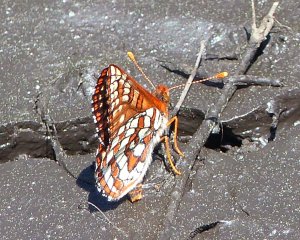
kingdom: Animalia
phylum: Arthropoda
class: Insecta
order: Lepidoptera
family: Nymphalidae
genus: Occidryas
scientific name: Occidryas anicia
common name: Anicia Checkerspot
